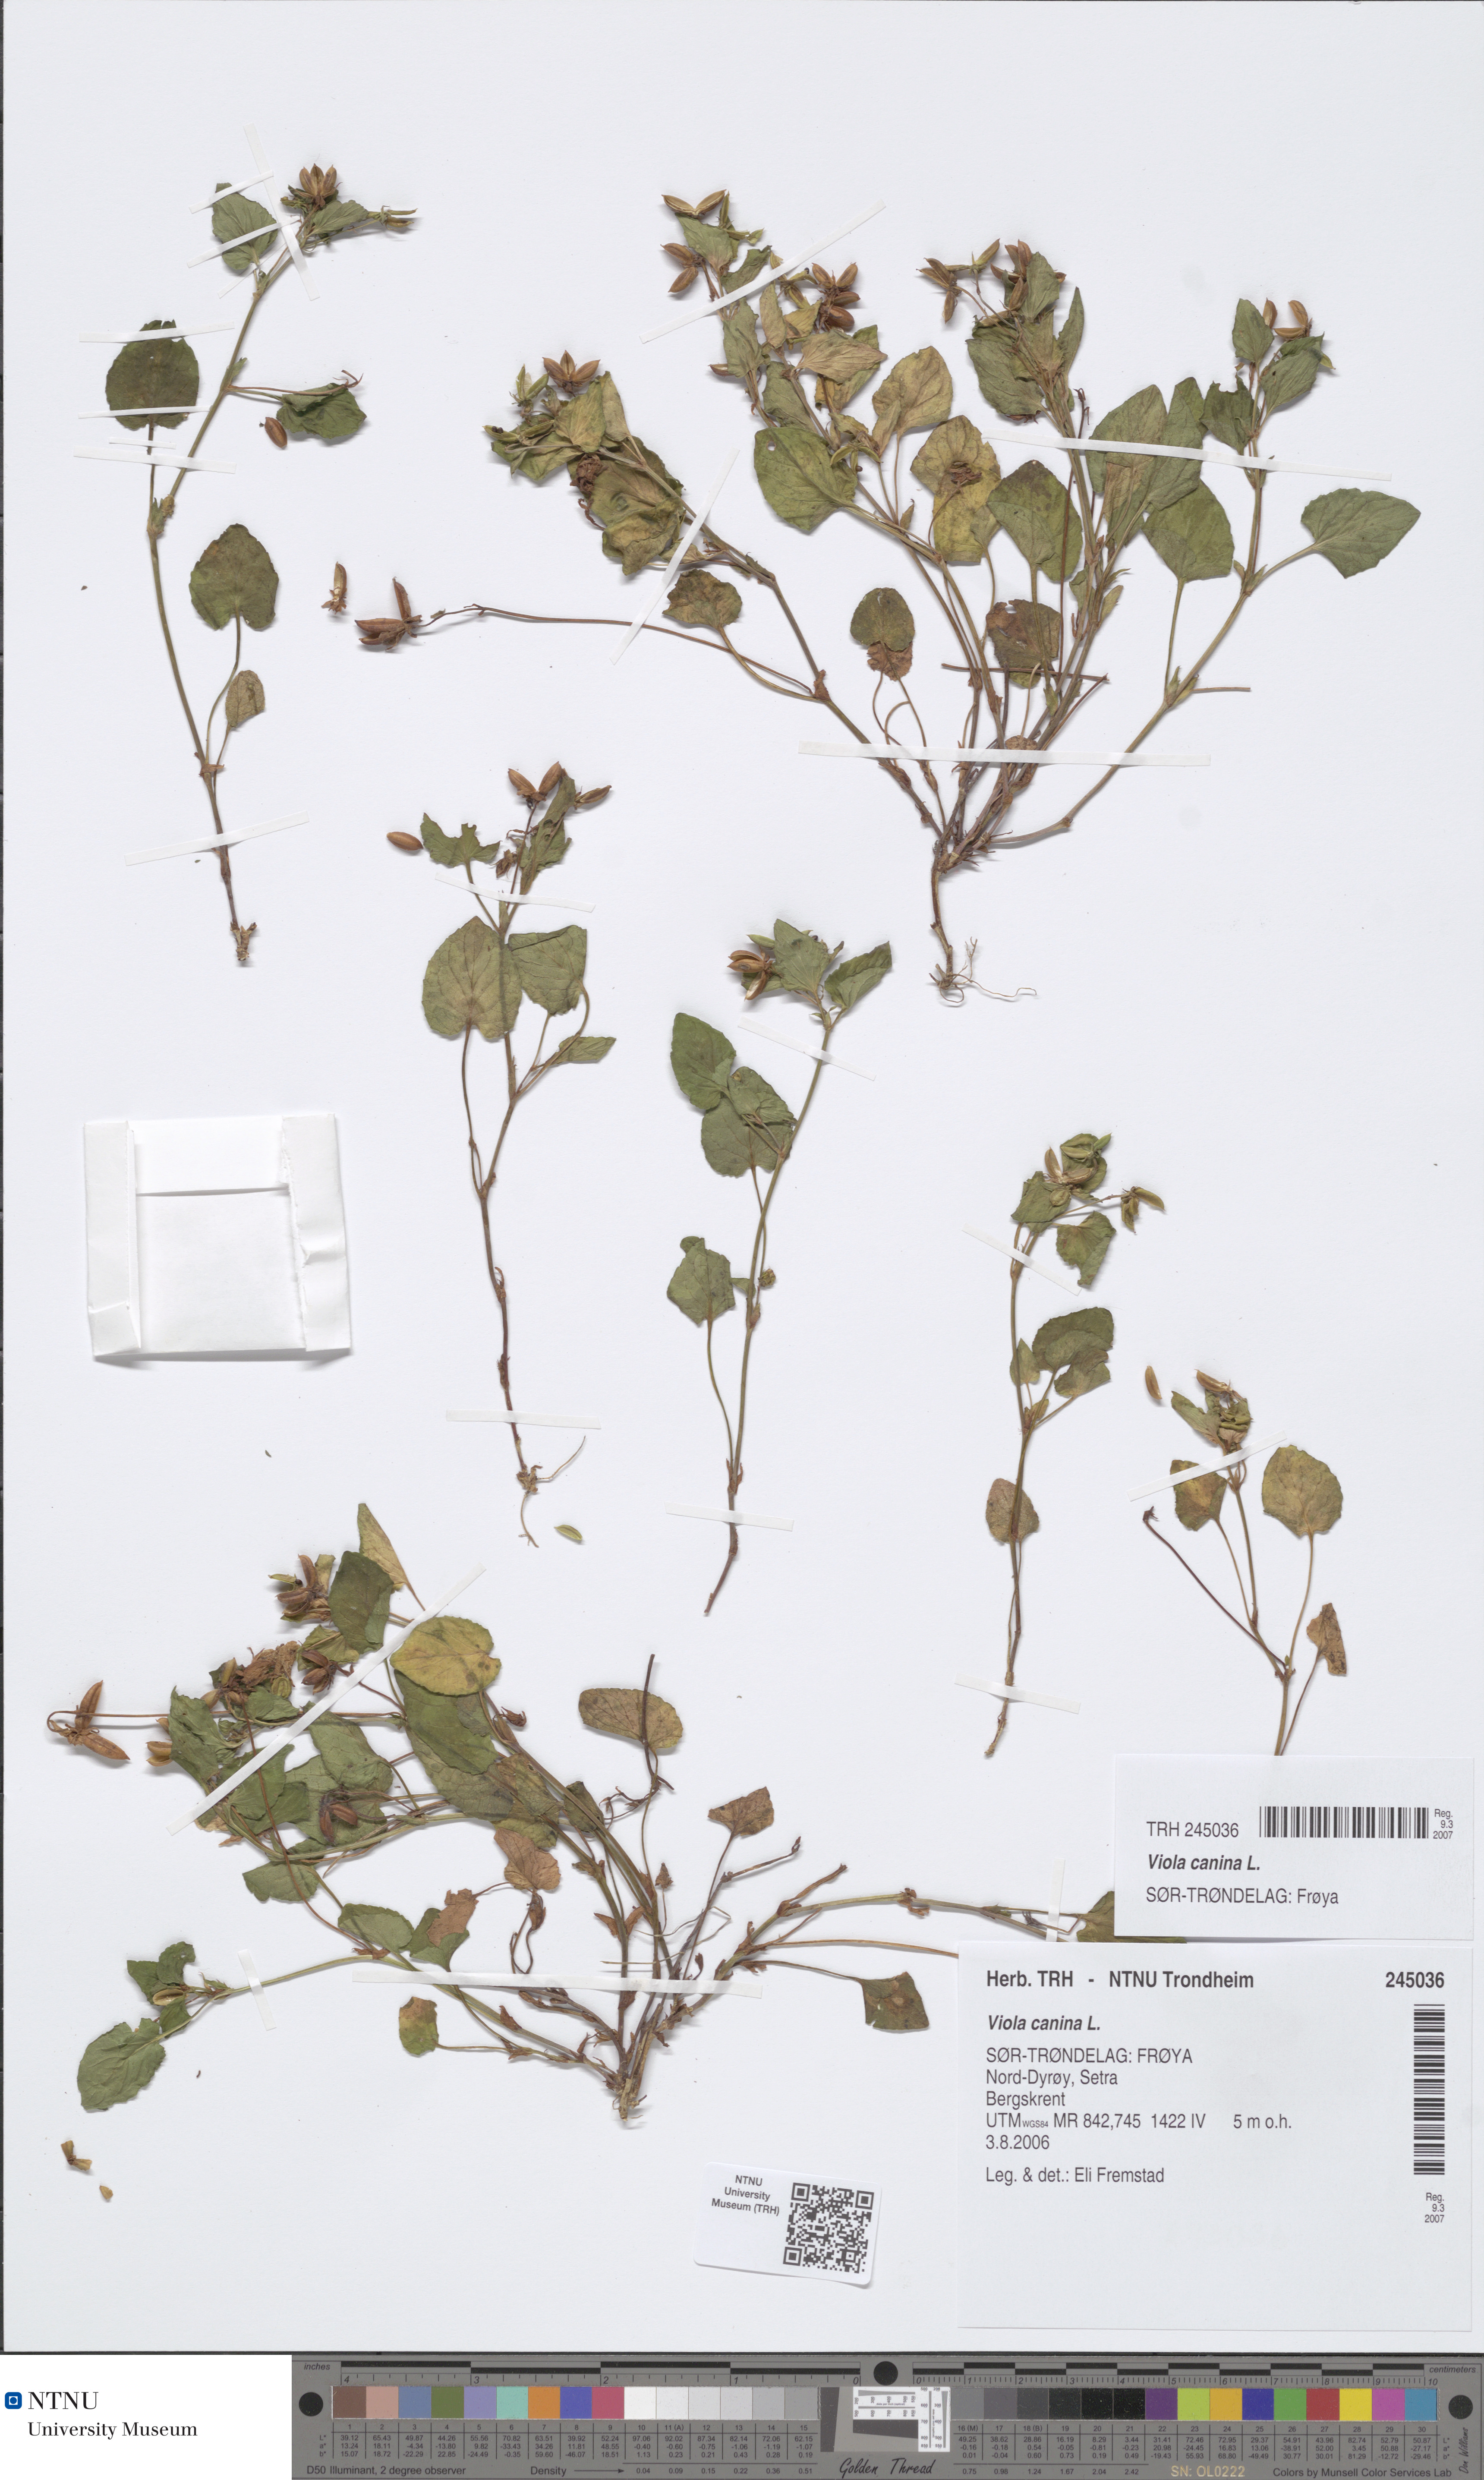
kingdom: Plantae
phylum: Tracheophyta
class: Magnoliopsida
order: Malpighiales
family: Violaceae
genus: Viola
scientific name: Viola canina
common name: Heath dog-violet
